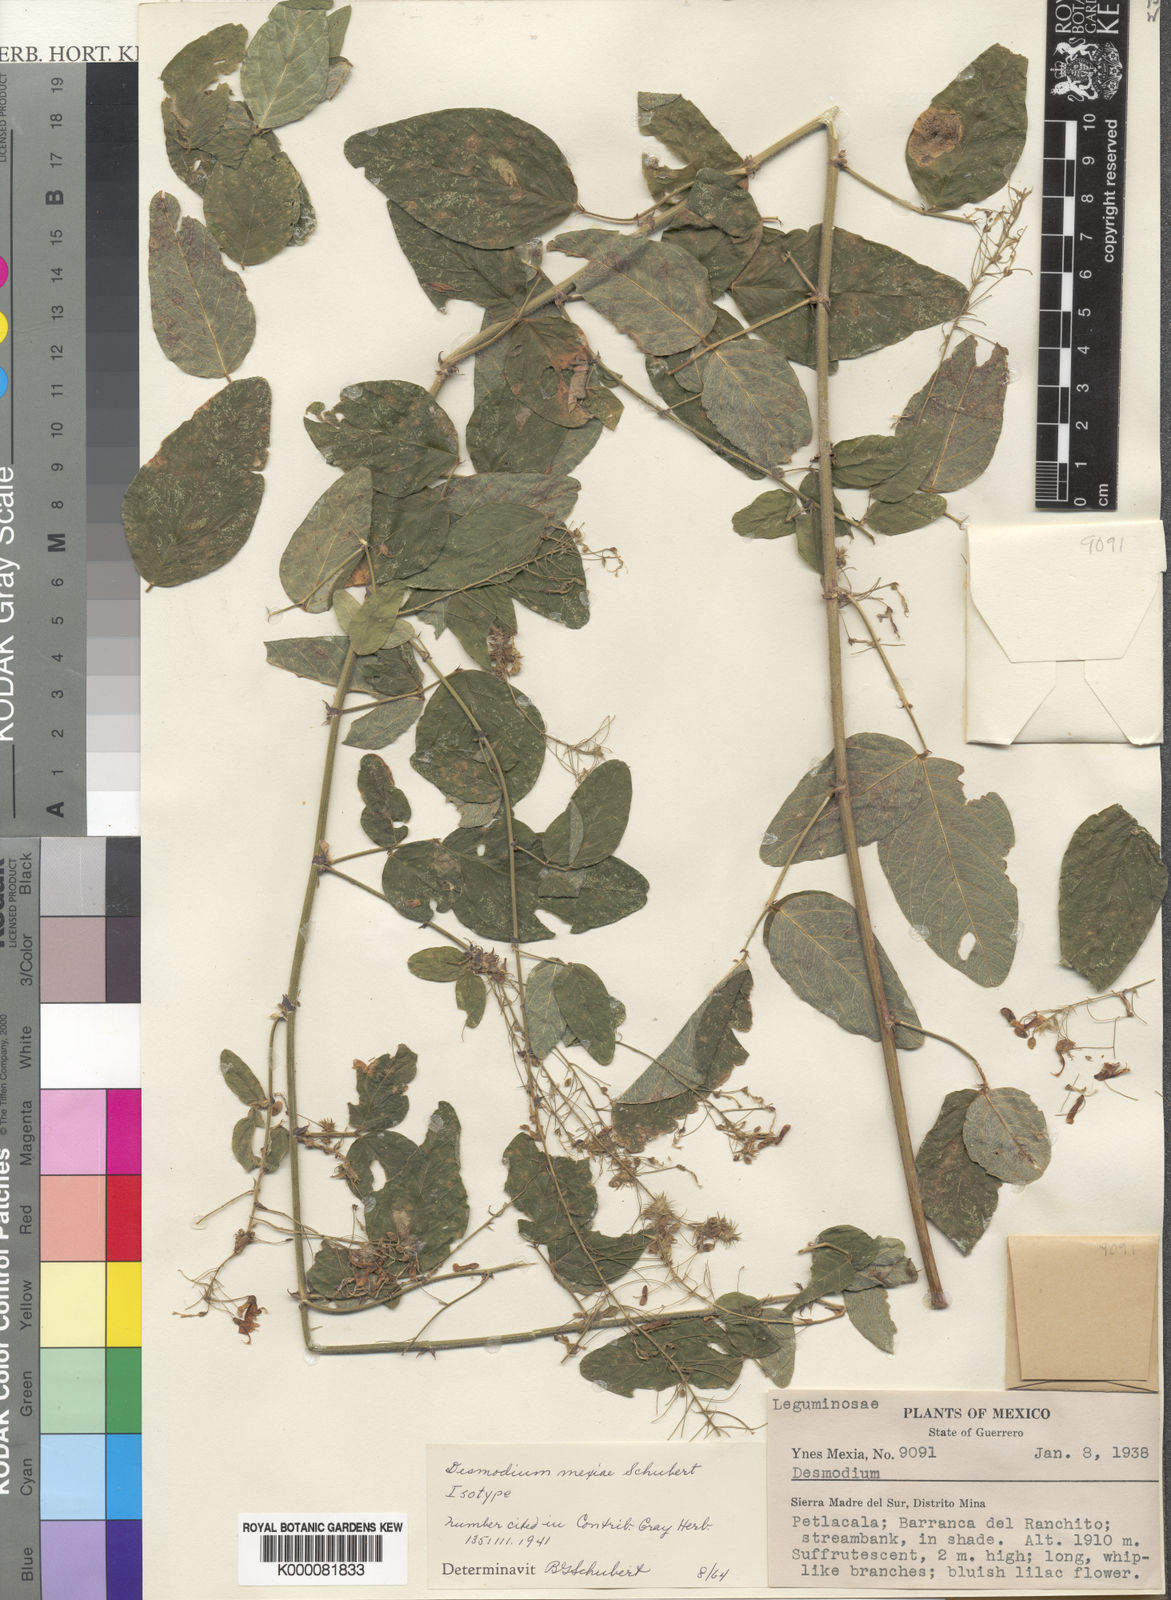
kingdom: Plantae
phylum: Tracheophyta
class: Magnoliopsida
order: Fabales
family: Fabaceae
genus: Desmodium
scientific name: Desmodium mexiae
